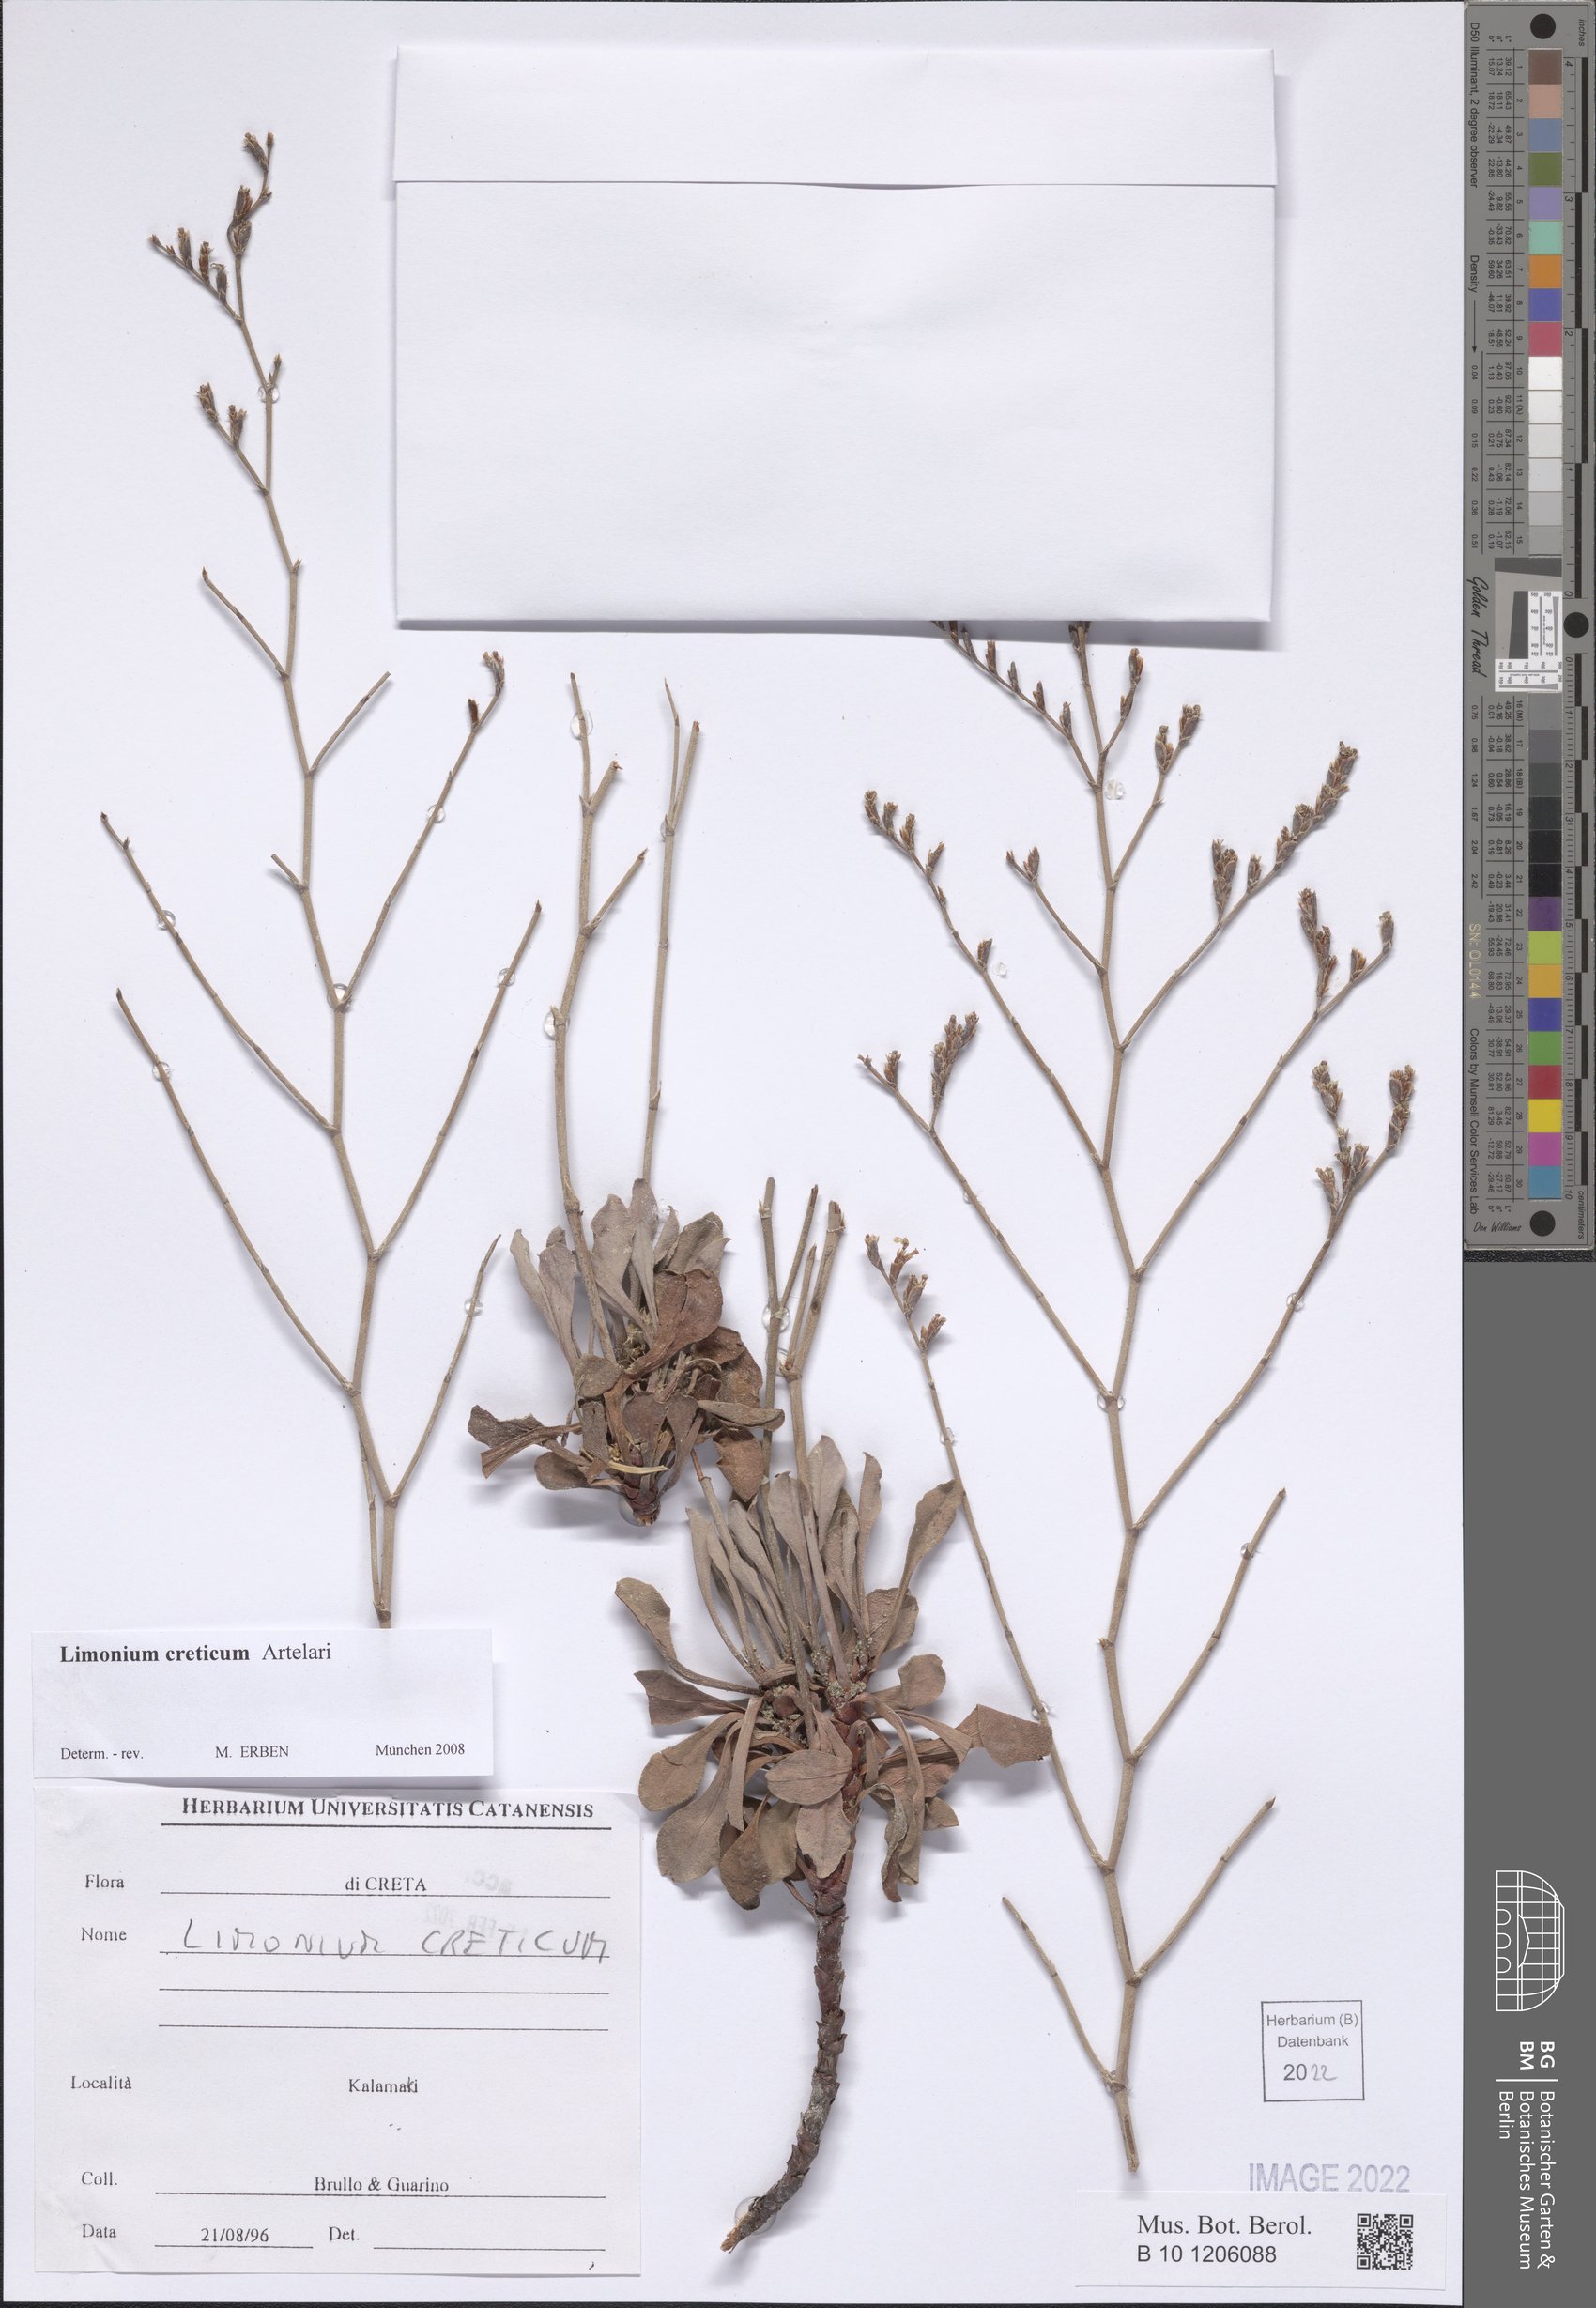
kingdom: Plantae
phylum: Tracheophyta
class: Magnoliopsida
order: Caryophyllales
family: Plumbaginaceae
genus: Limonium
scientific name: Limonium creticum
